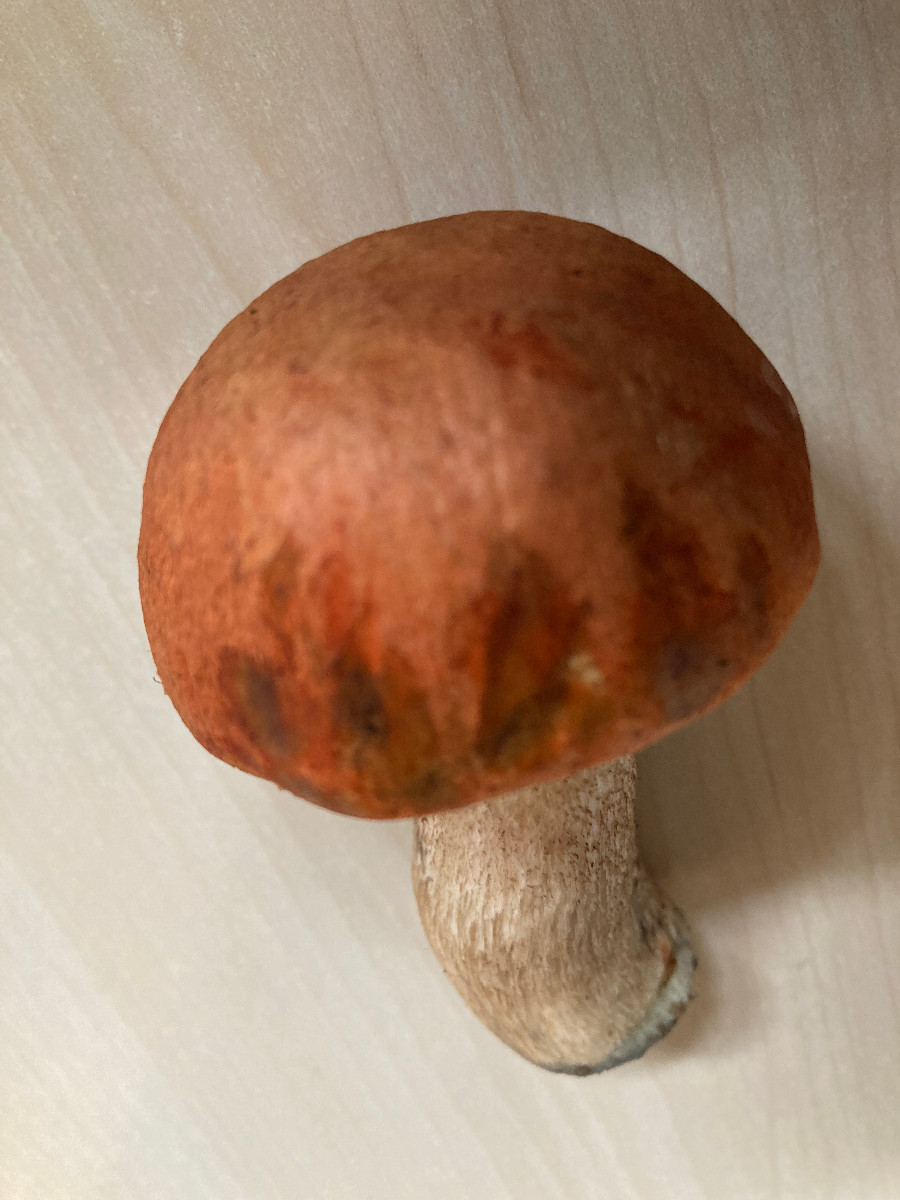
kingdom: Fungi
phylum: Basidiomycota
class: Agaricomycetes
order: Boletales
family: Boletaceae
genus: Leccinum
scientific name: Leccinum
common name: skælrørhat
